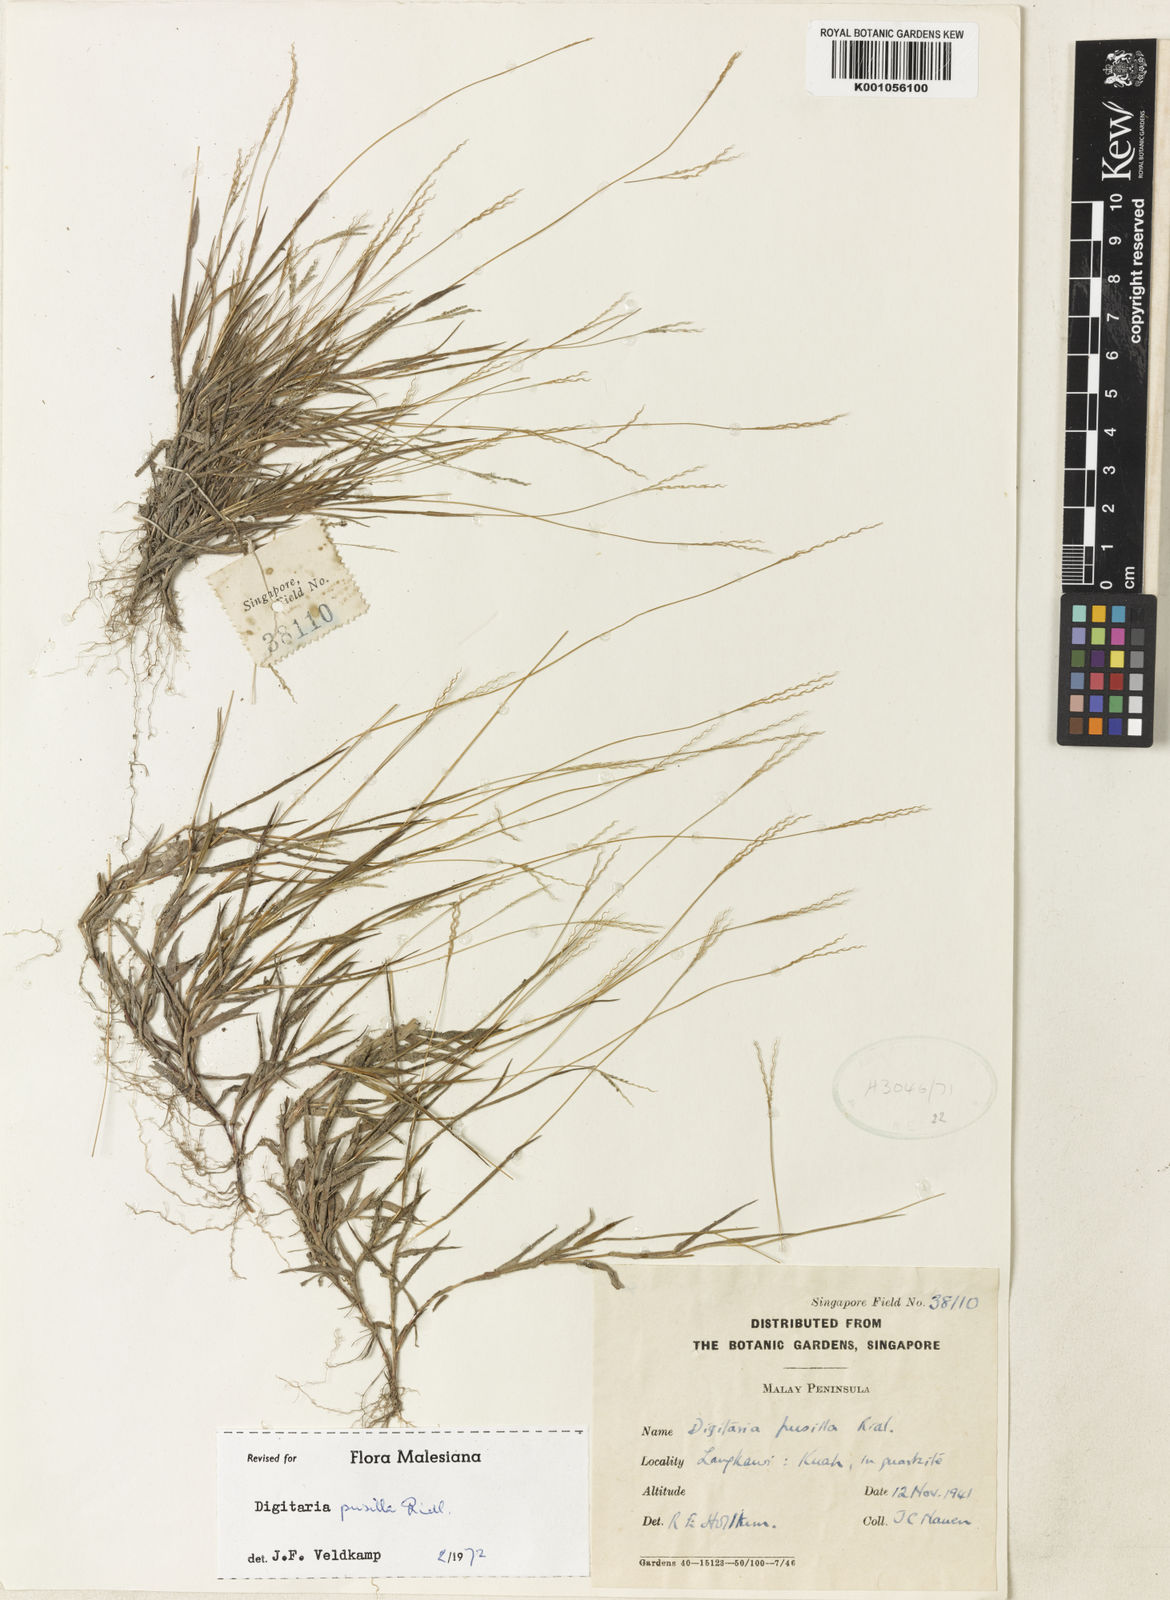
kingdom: Plantae
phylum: Tracheophyta
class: Liliopsida
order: Poales
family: Poaceae
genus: Digitaria
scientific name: Digitaria heterantha
